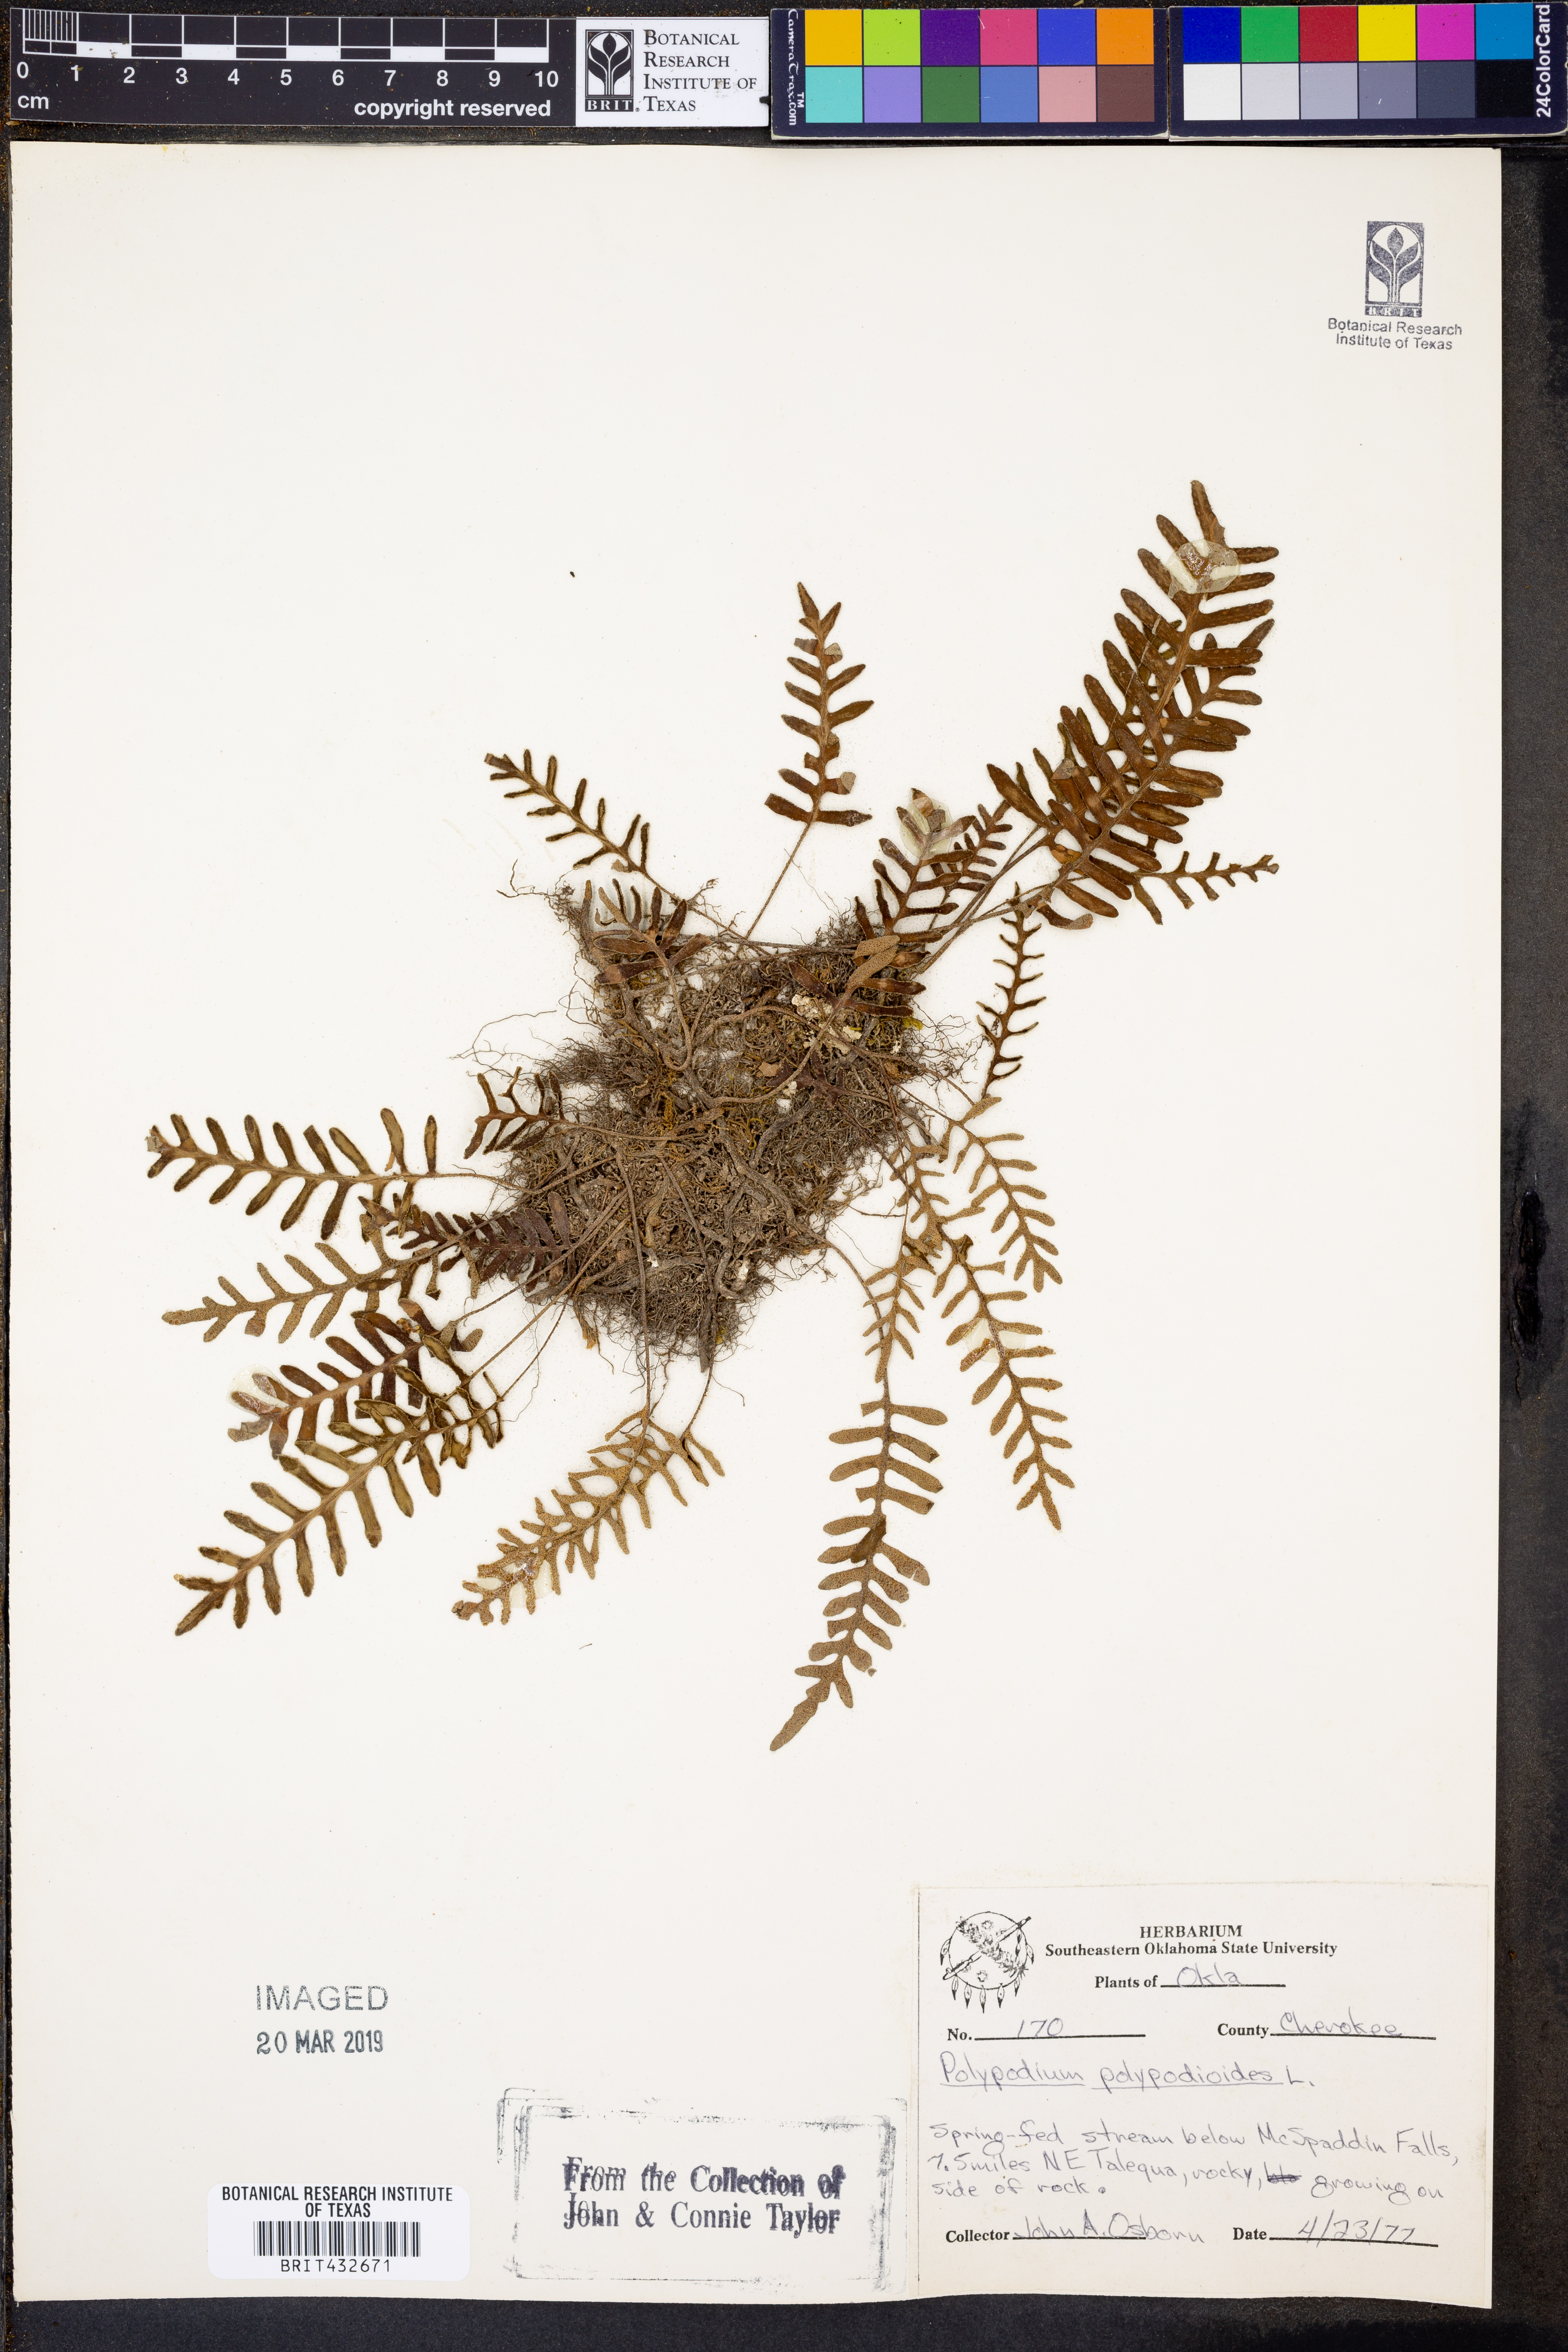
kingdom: Plantae
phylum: Tracheophyta
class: Polypodiopsida
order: Polypodiales
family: Polypodiaceae
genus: Pleopeltis
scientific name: Pleopeltis polypodioides
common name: Resurrection fern
